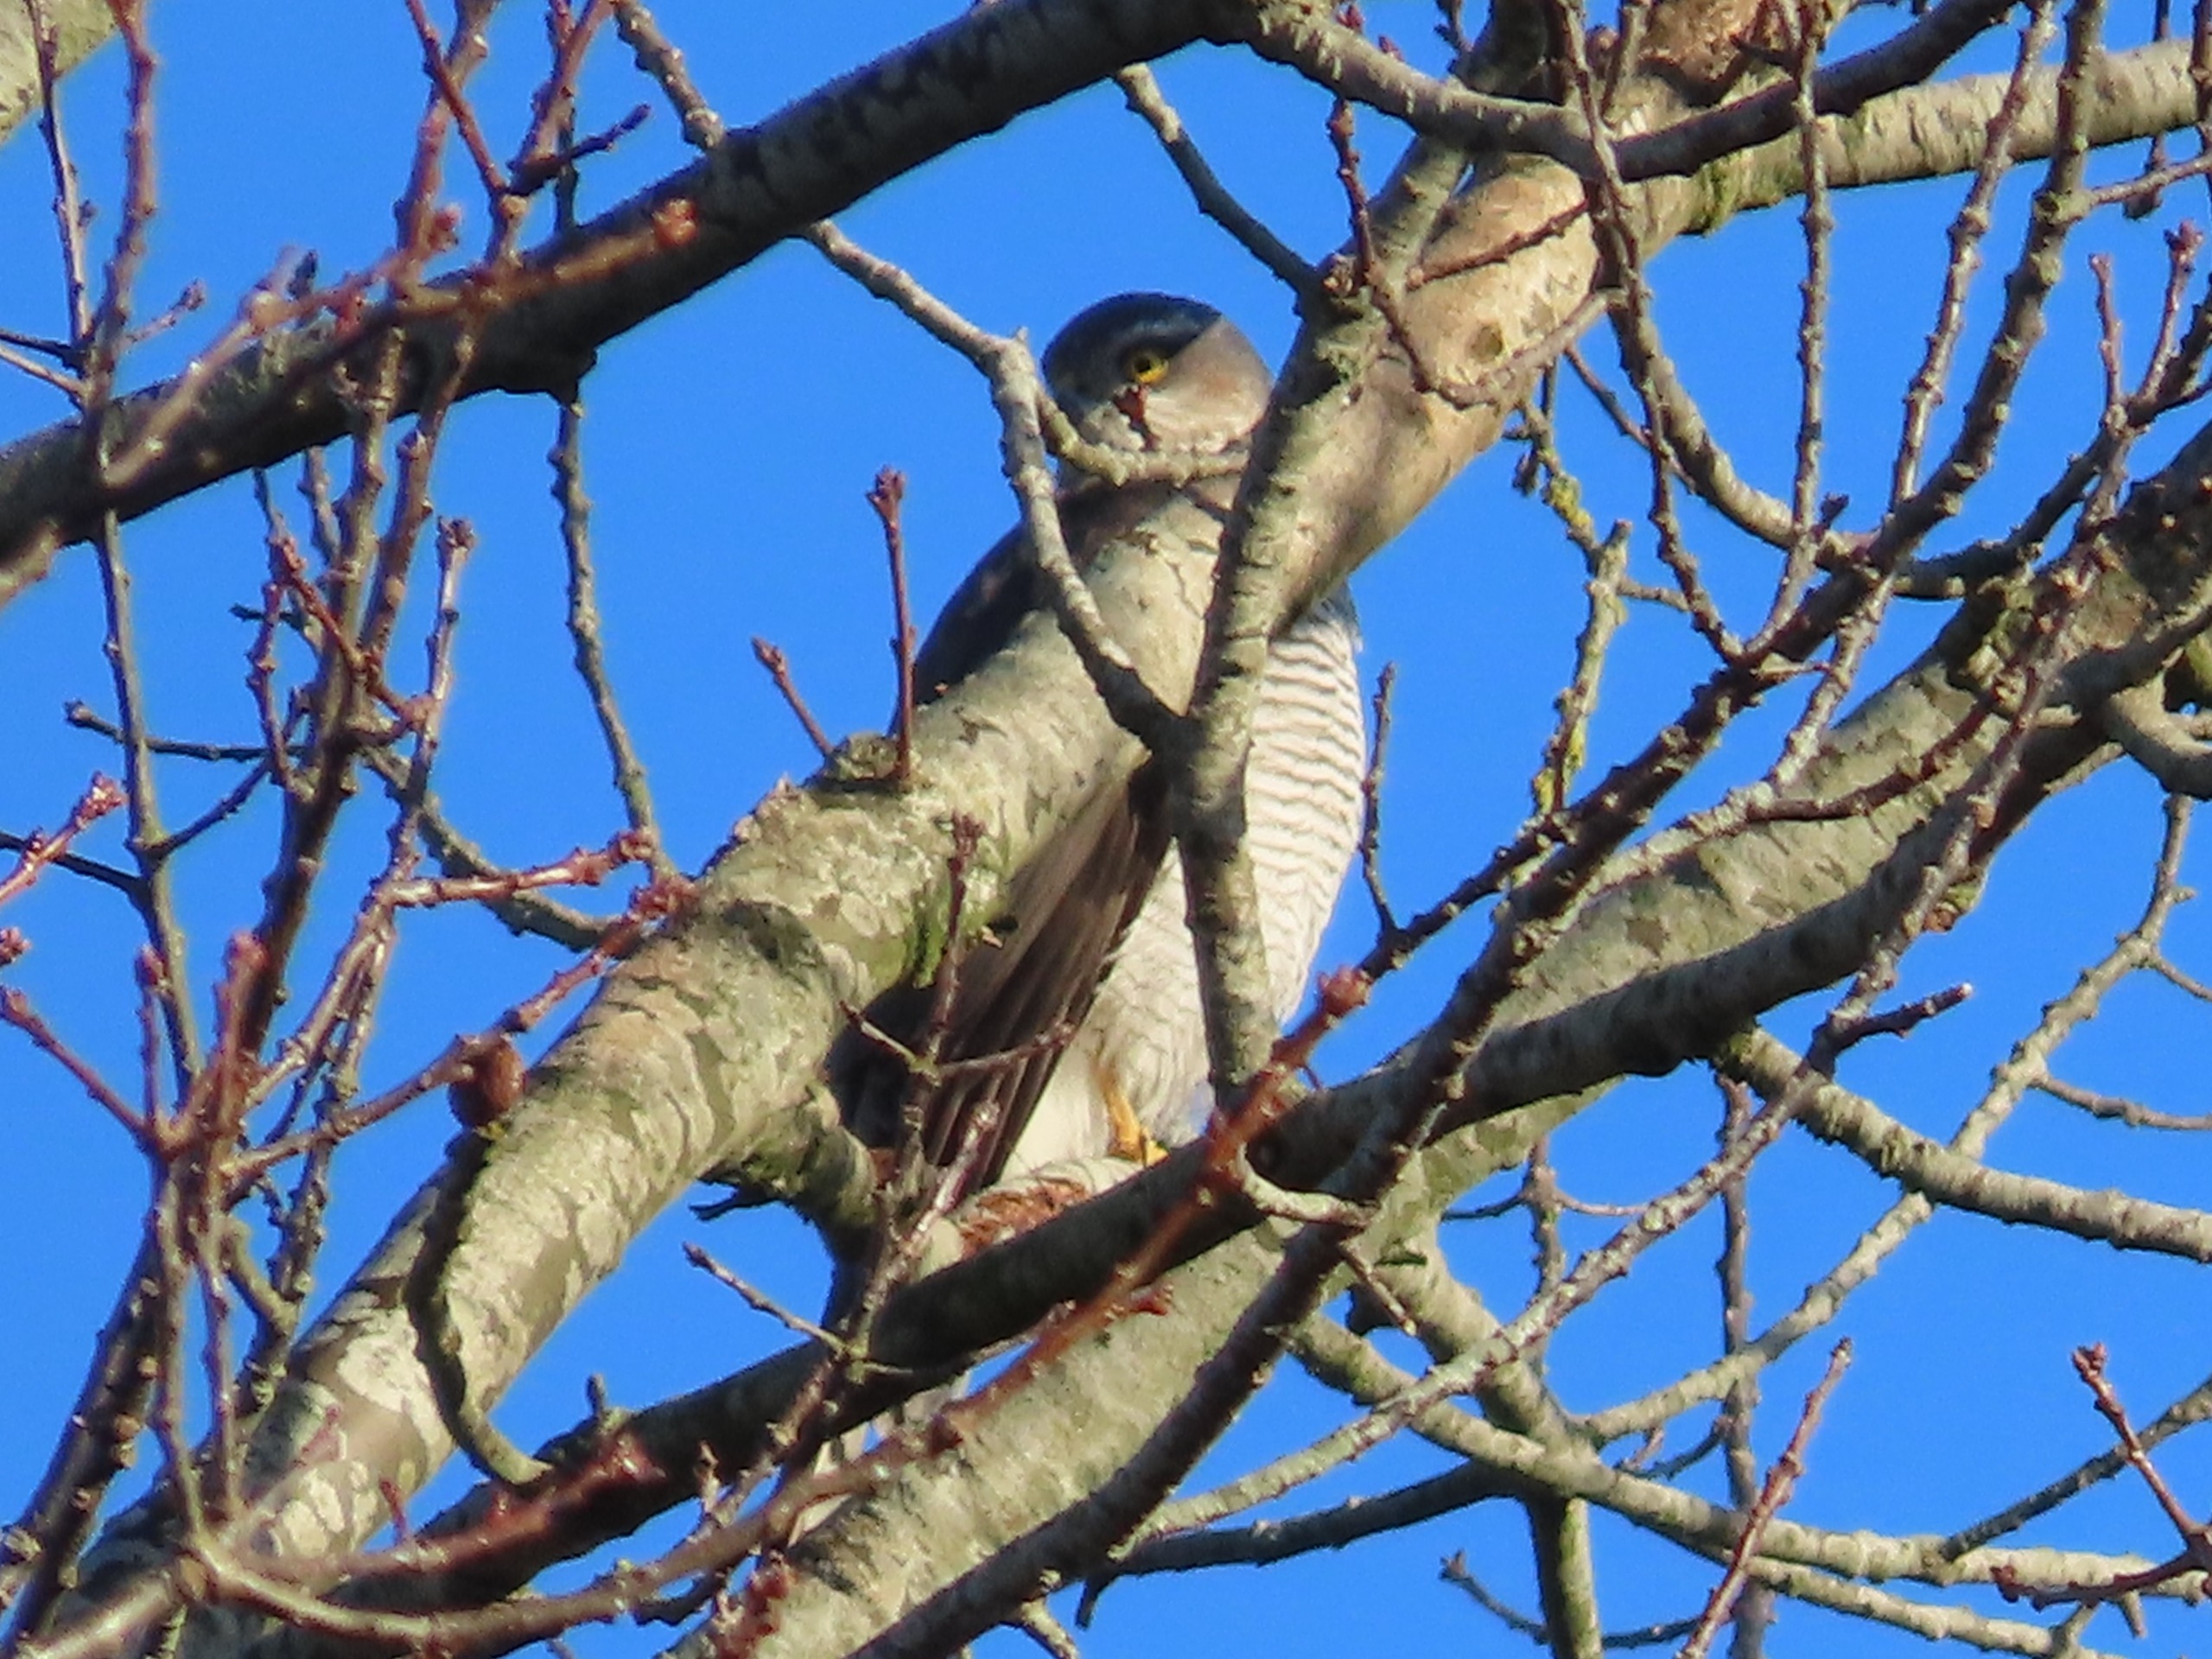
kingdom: Animalia
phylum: Chordata
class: Aves
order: Accipitriformes
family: Accipitridae
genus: Accipiter
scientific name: Accipiter nisus
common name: Spurvehøg
